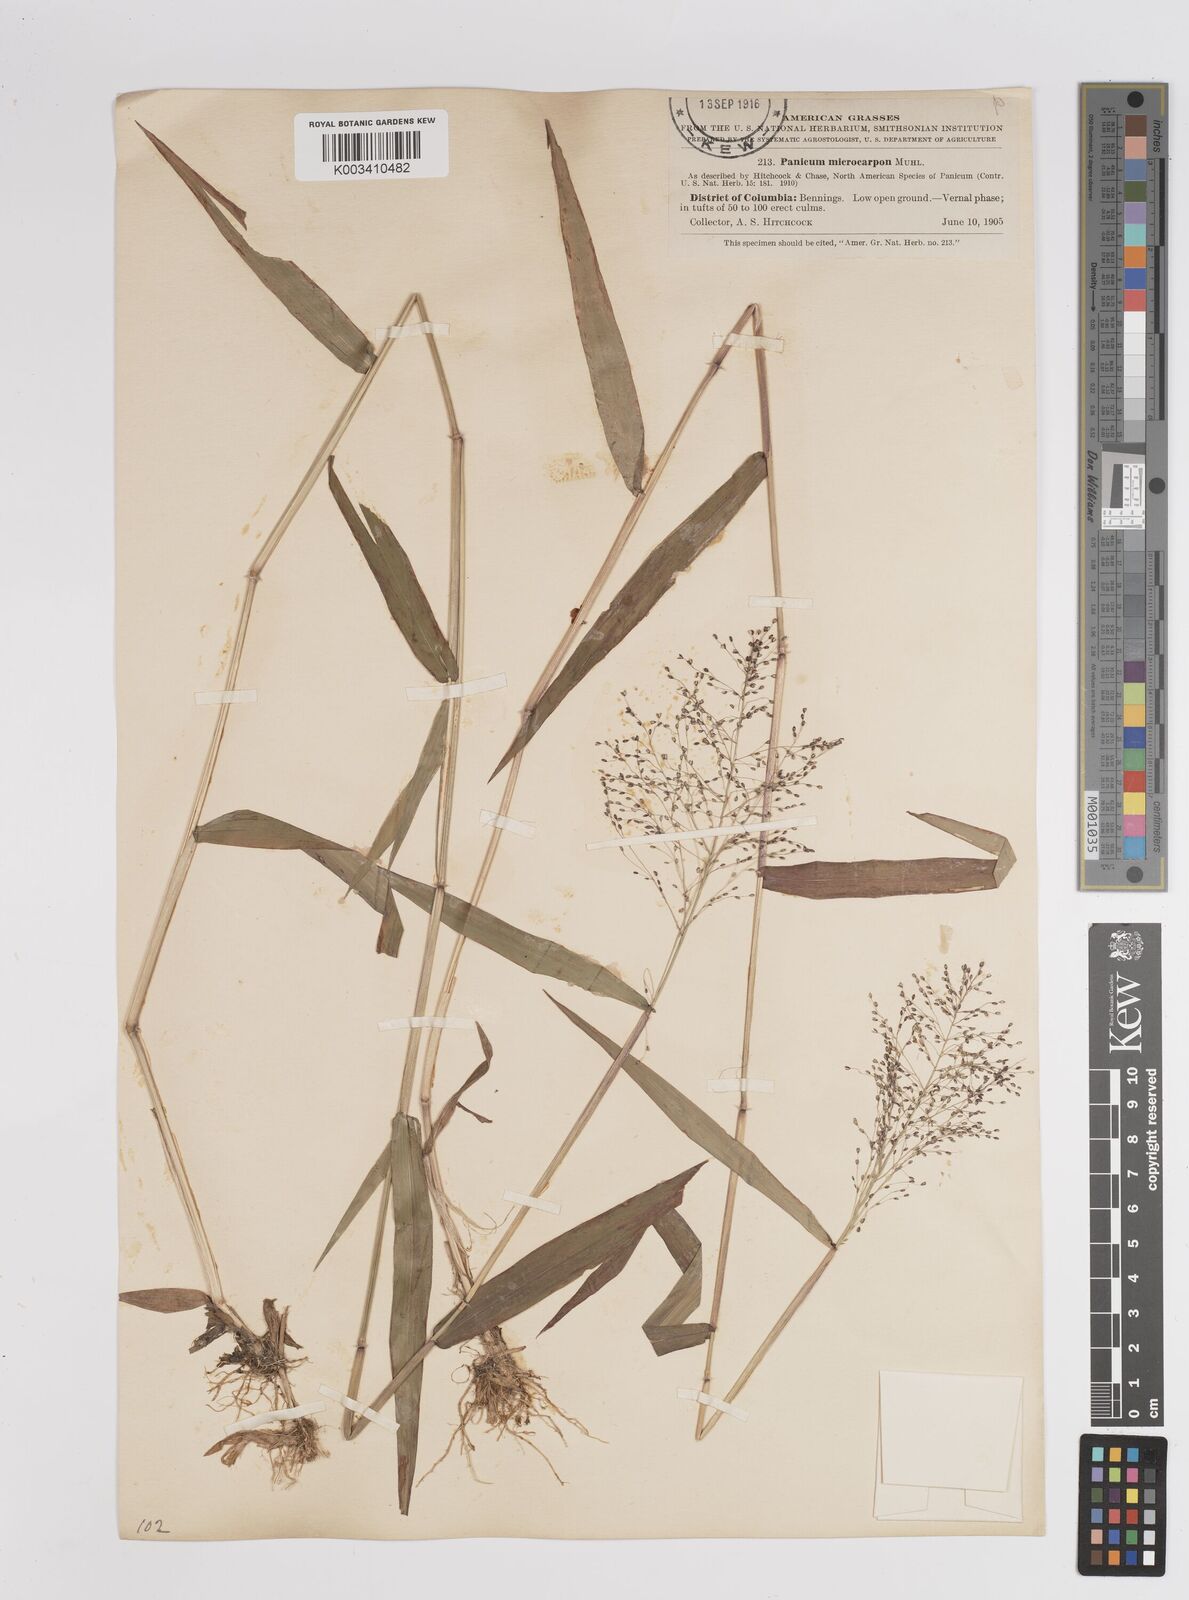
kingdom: Plantae
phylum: Tracheophyta
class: Liliopsida
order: Poales
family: Poaceae
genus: Dichanthelium
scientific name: Dichanthelium polyanthes
